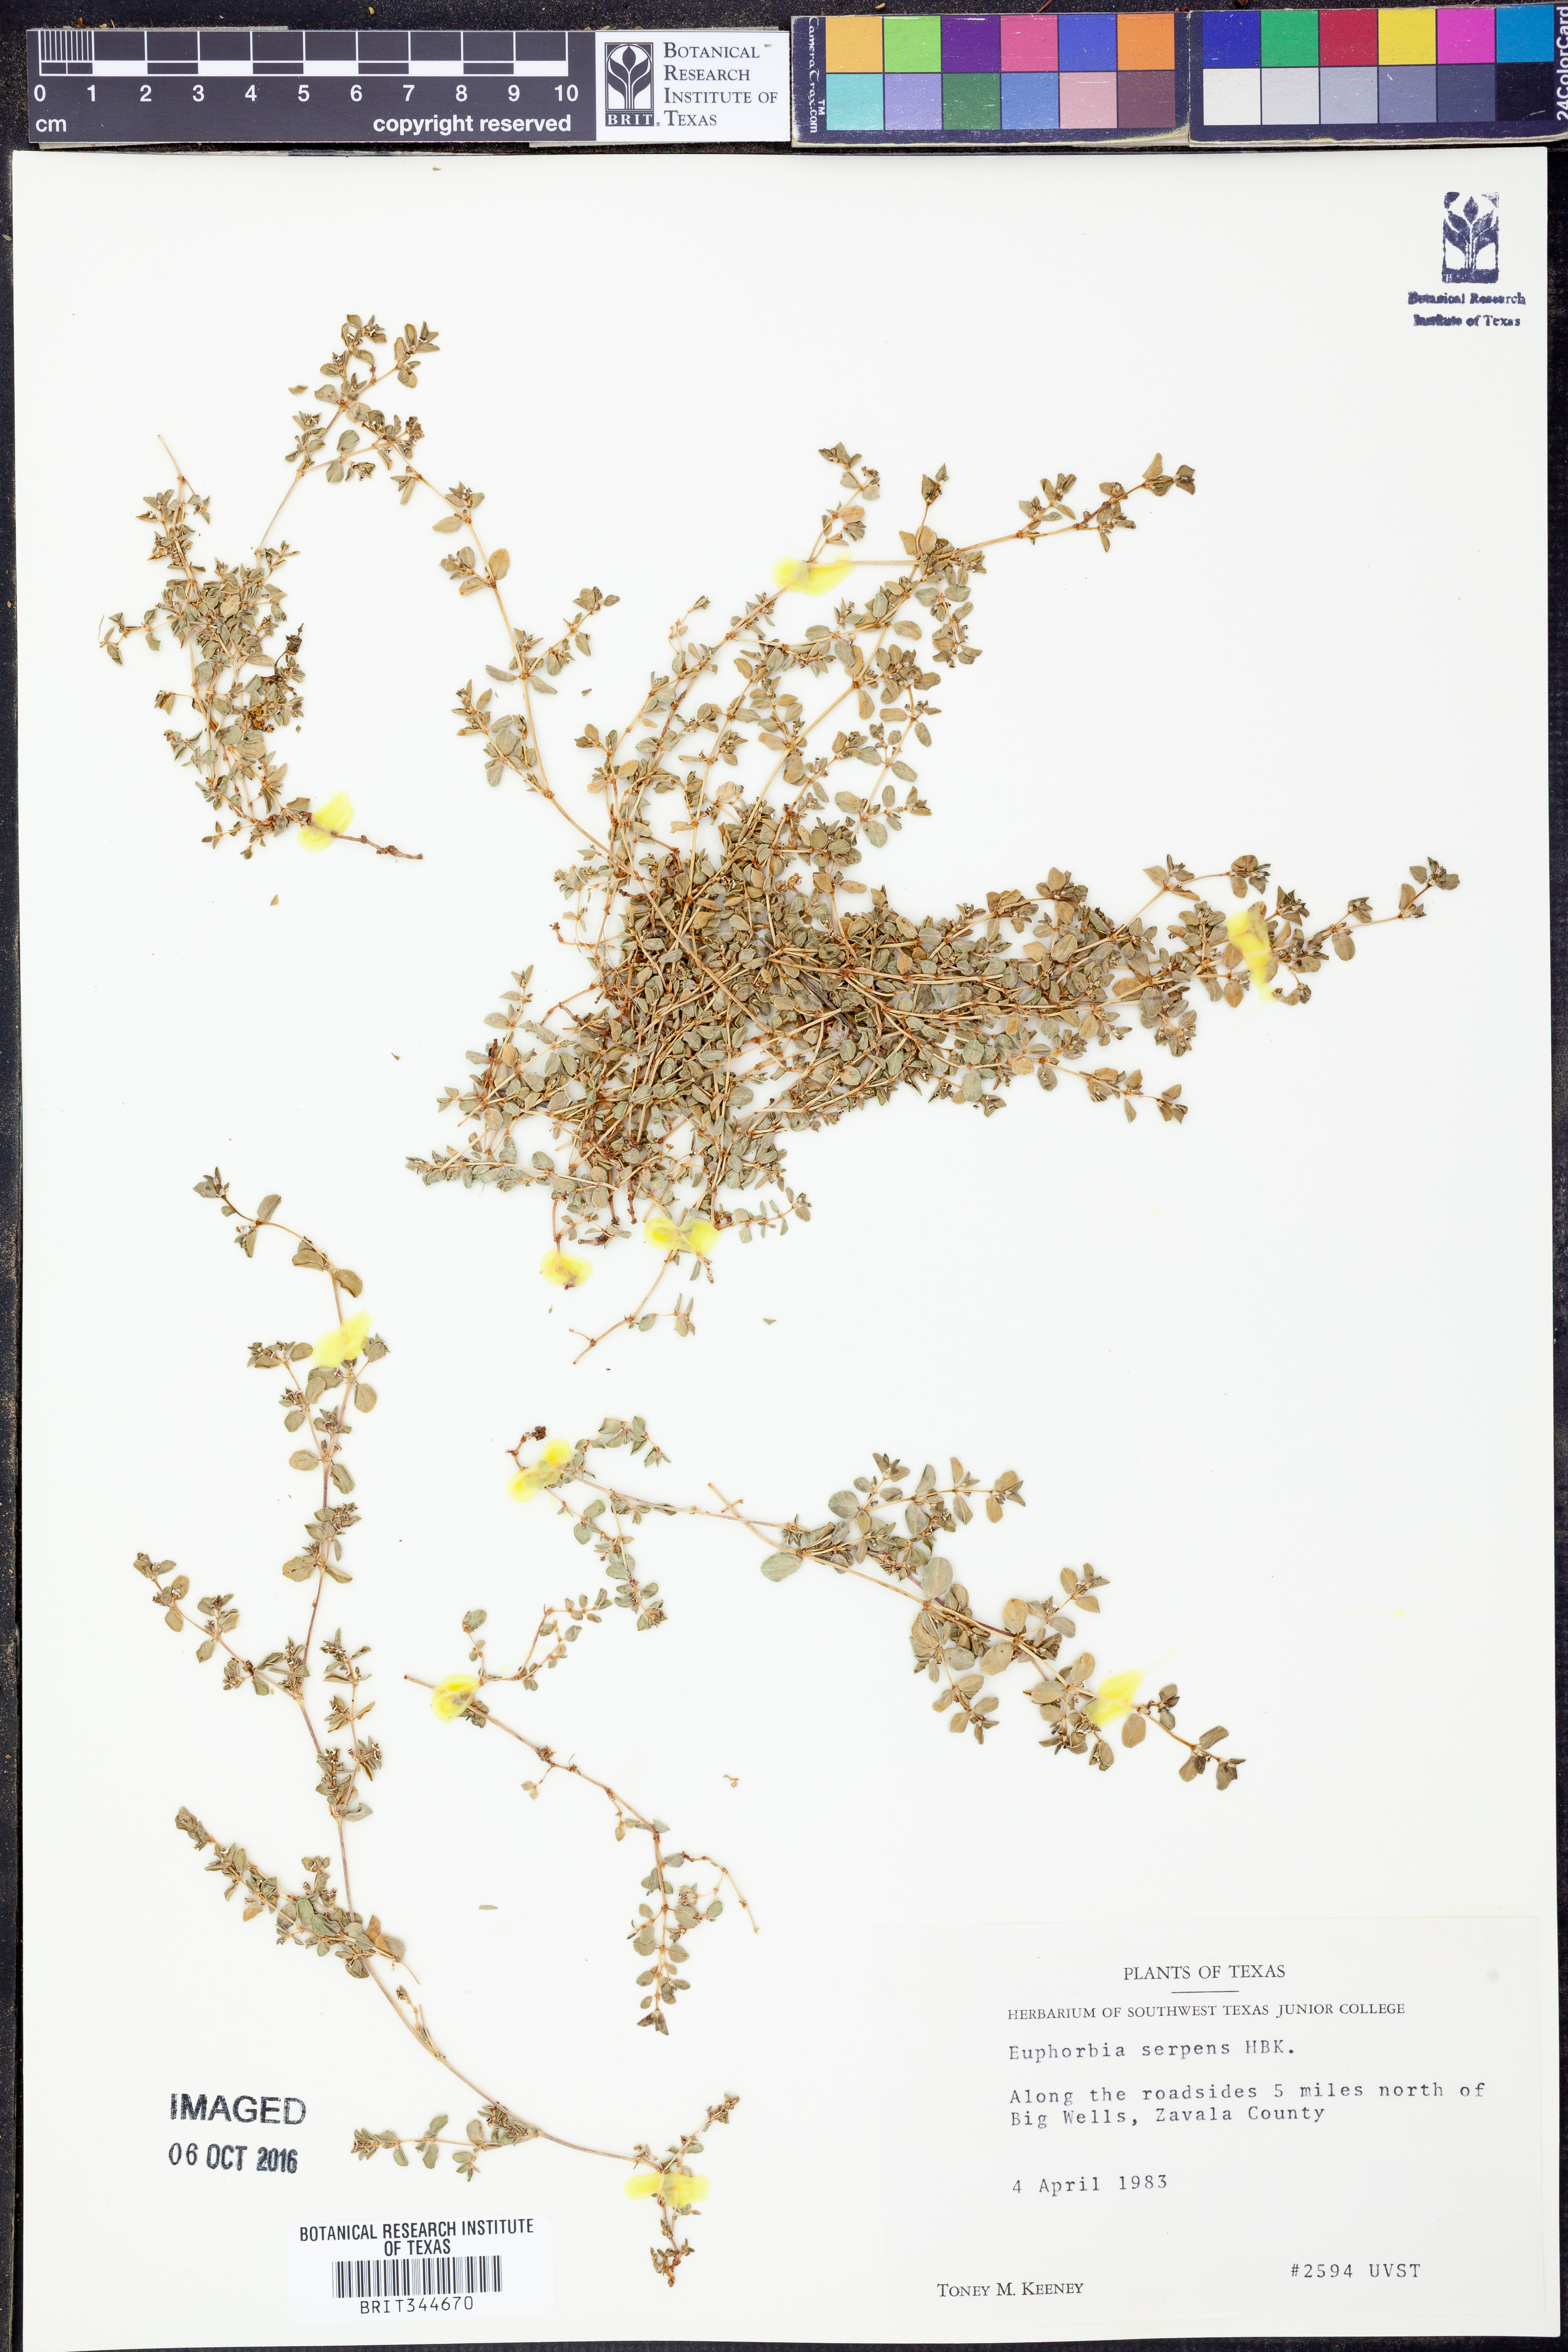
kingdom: Plantae
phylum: Tracheophyta
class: Magnoliopsida
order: Malpighiales
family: Euphorbiaceae
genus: Euphorbia
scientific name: Euphorbia serpens
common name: Matted sandmat
